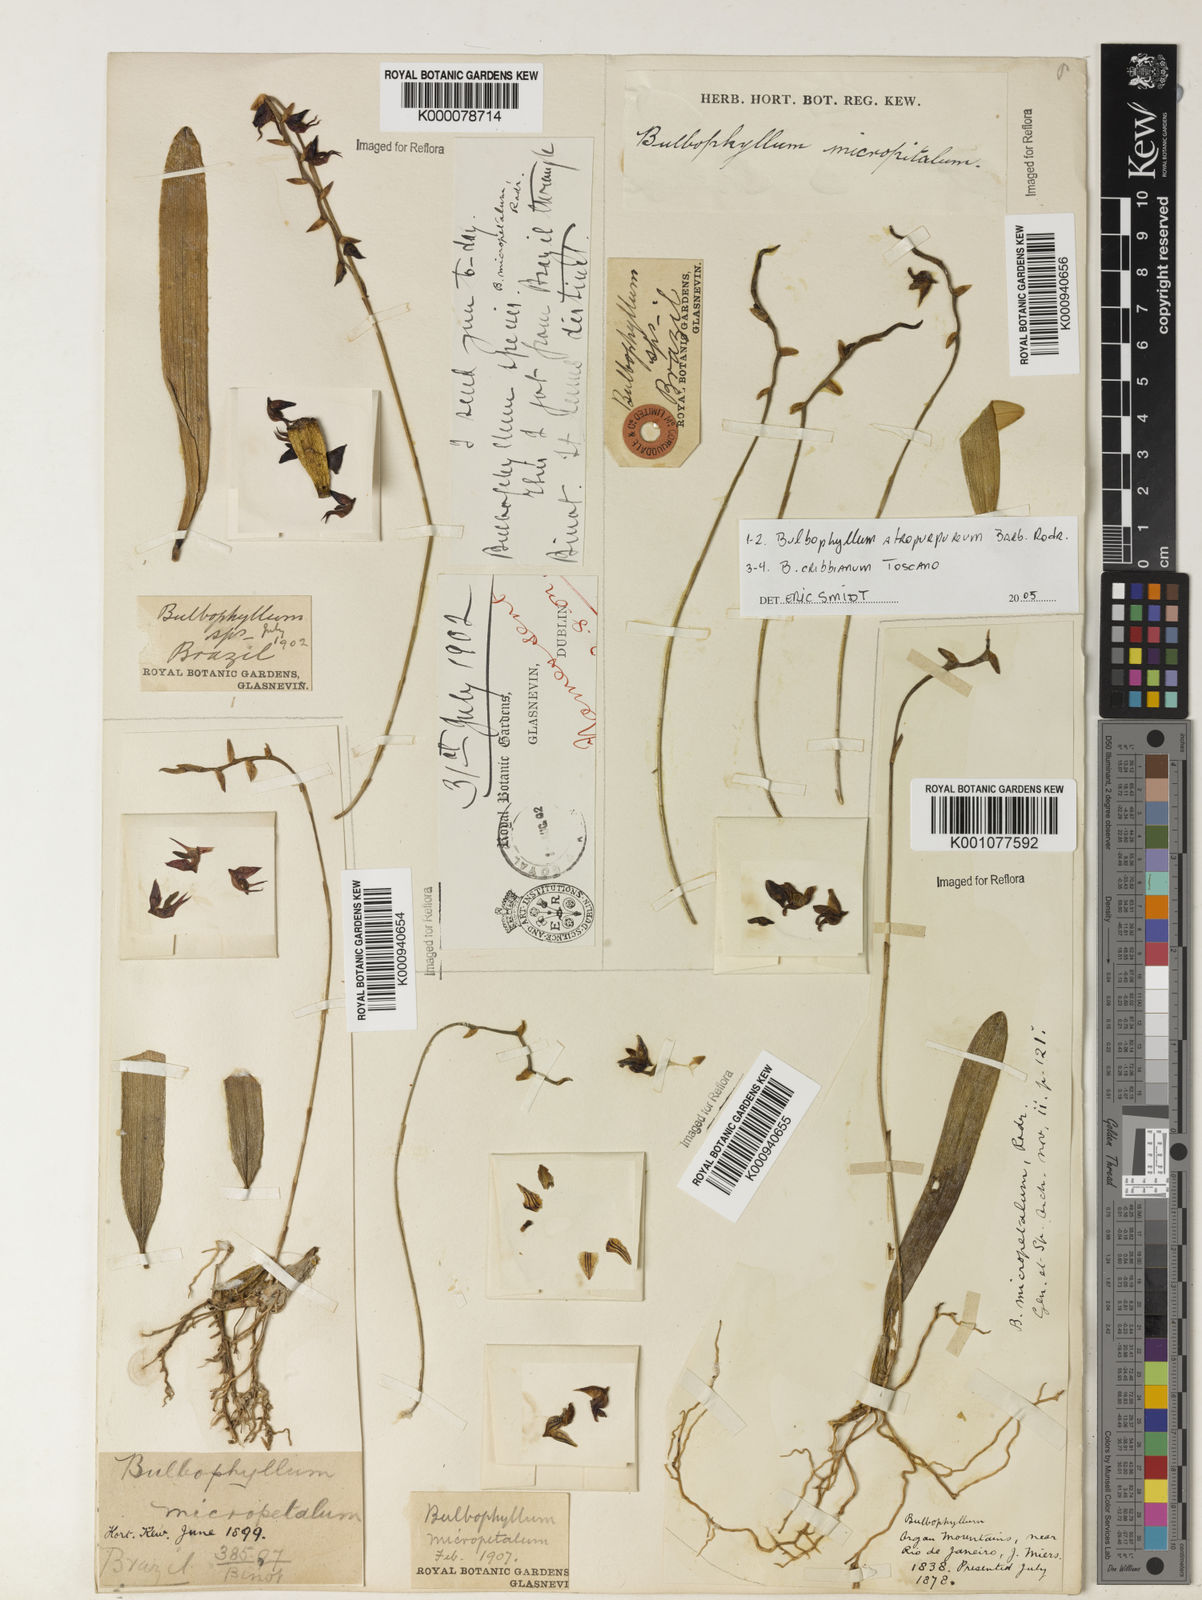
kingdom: Plantae
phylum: Tracheophyta
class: Liliopsida
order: Asparagales
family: Orchidaceae
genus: Bulbophyllum
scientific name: Bulbophyllum micropetaliforme
